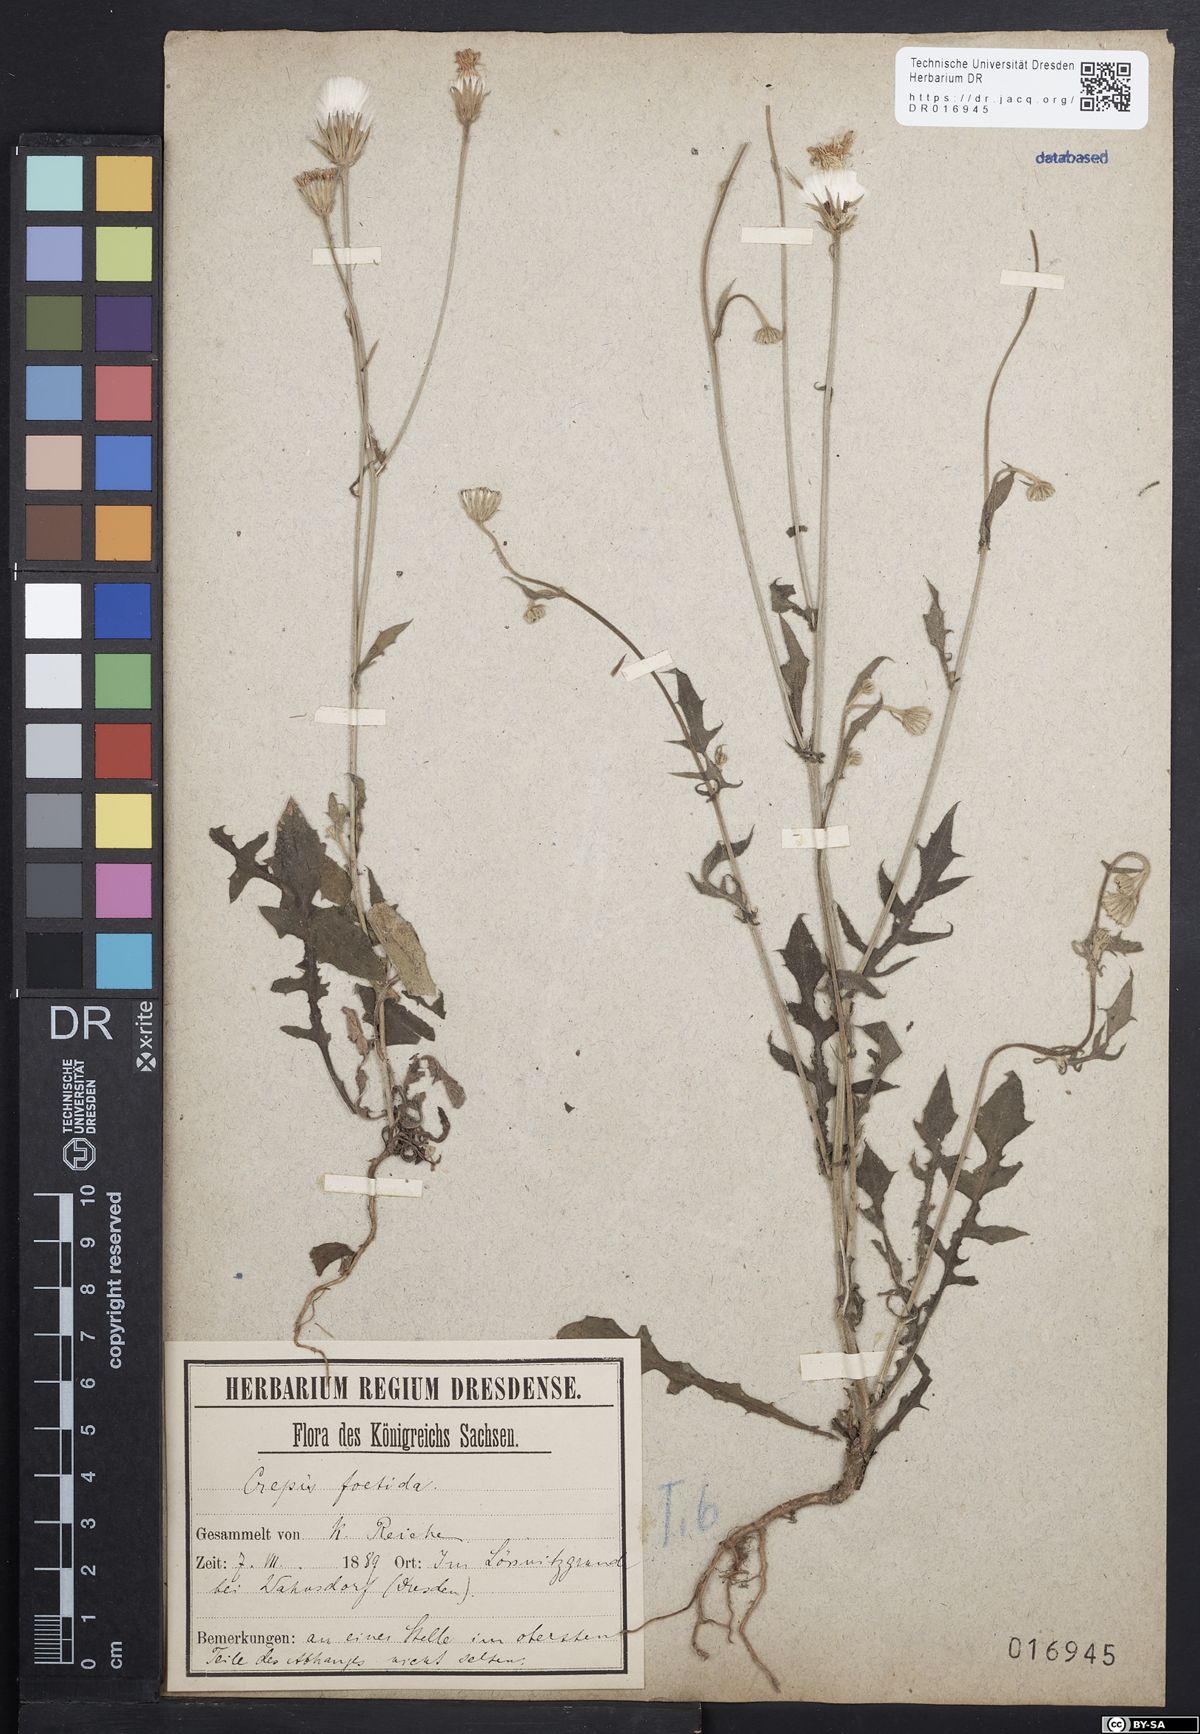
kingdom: Plantae
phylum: Tracheophyta
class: Magnoliopsida
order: Asterales
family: Asteraceae
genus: Crepis
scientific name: Crepis foetida
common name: Stinking hawk's-beard
